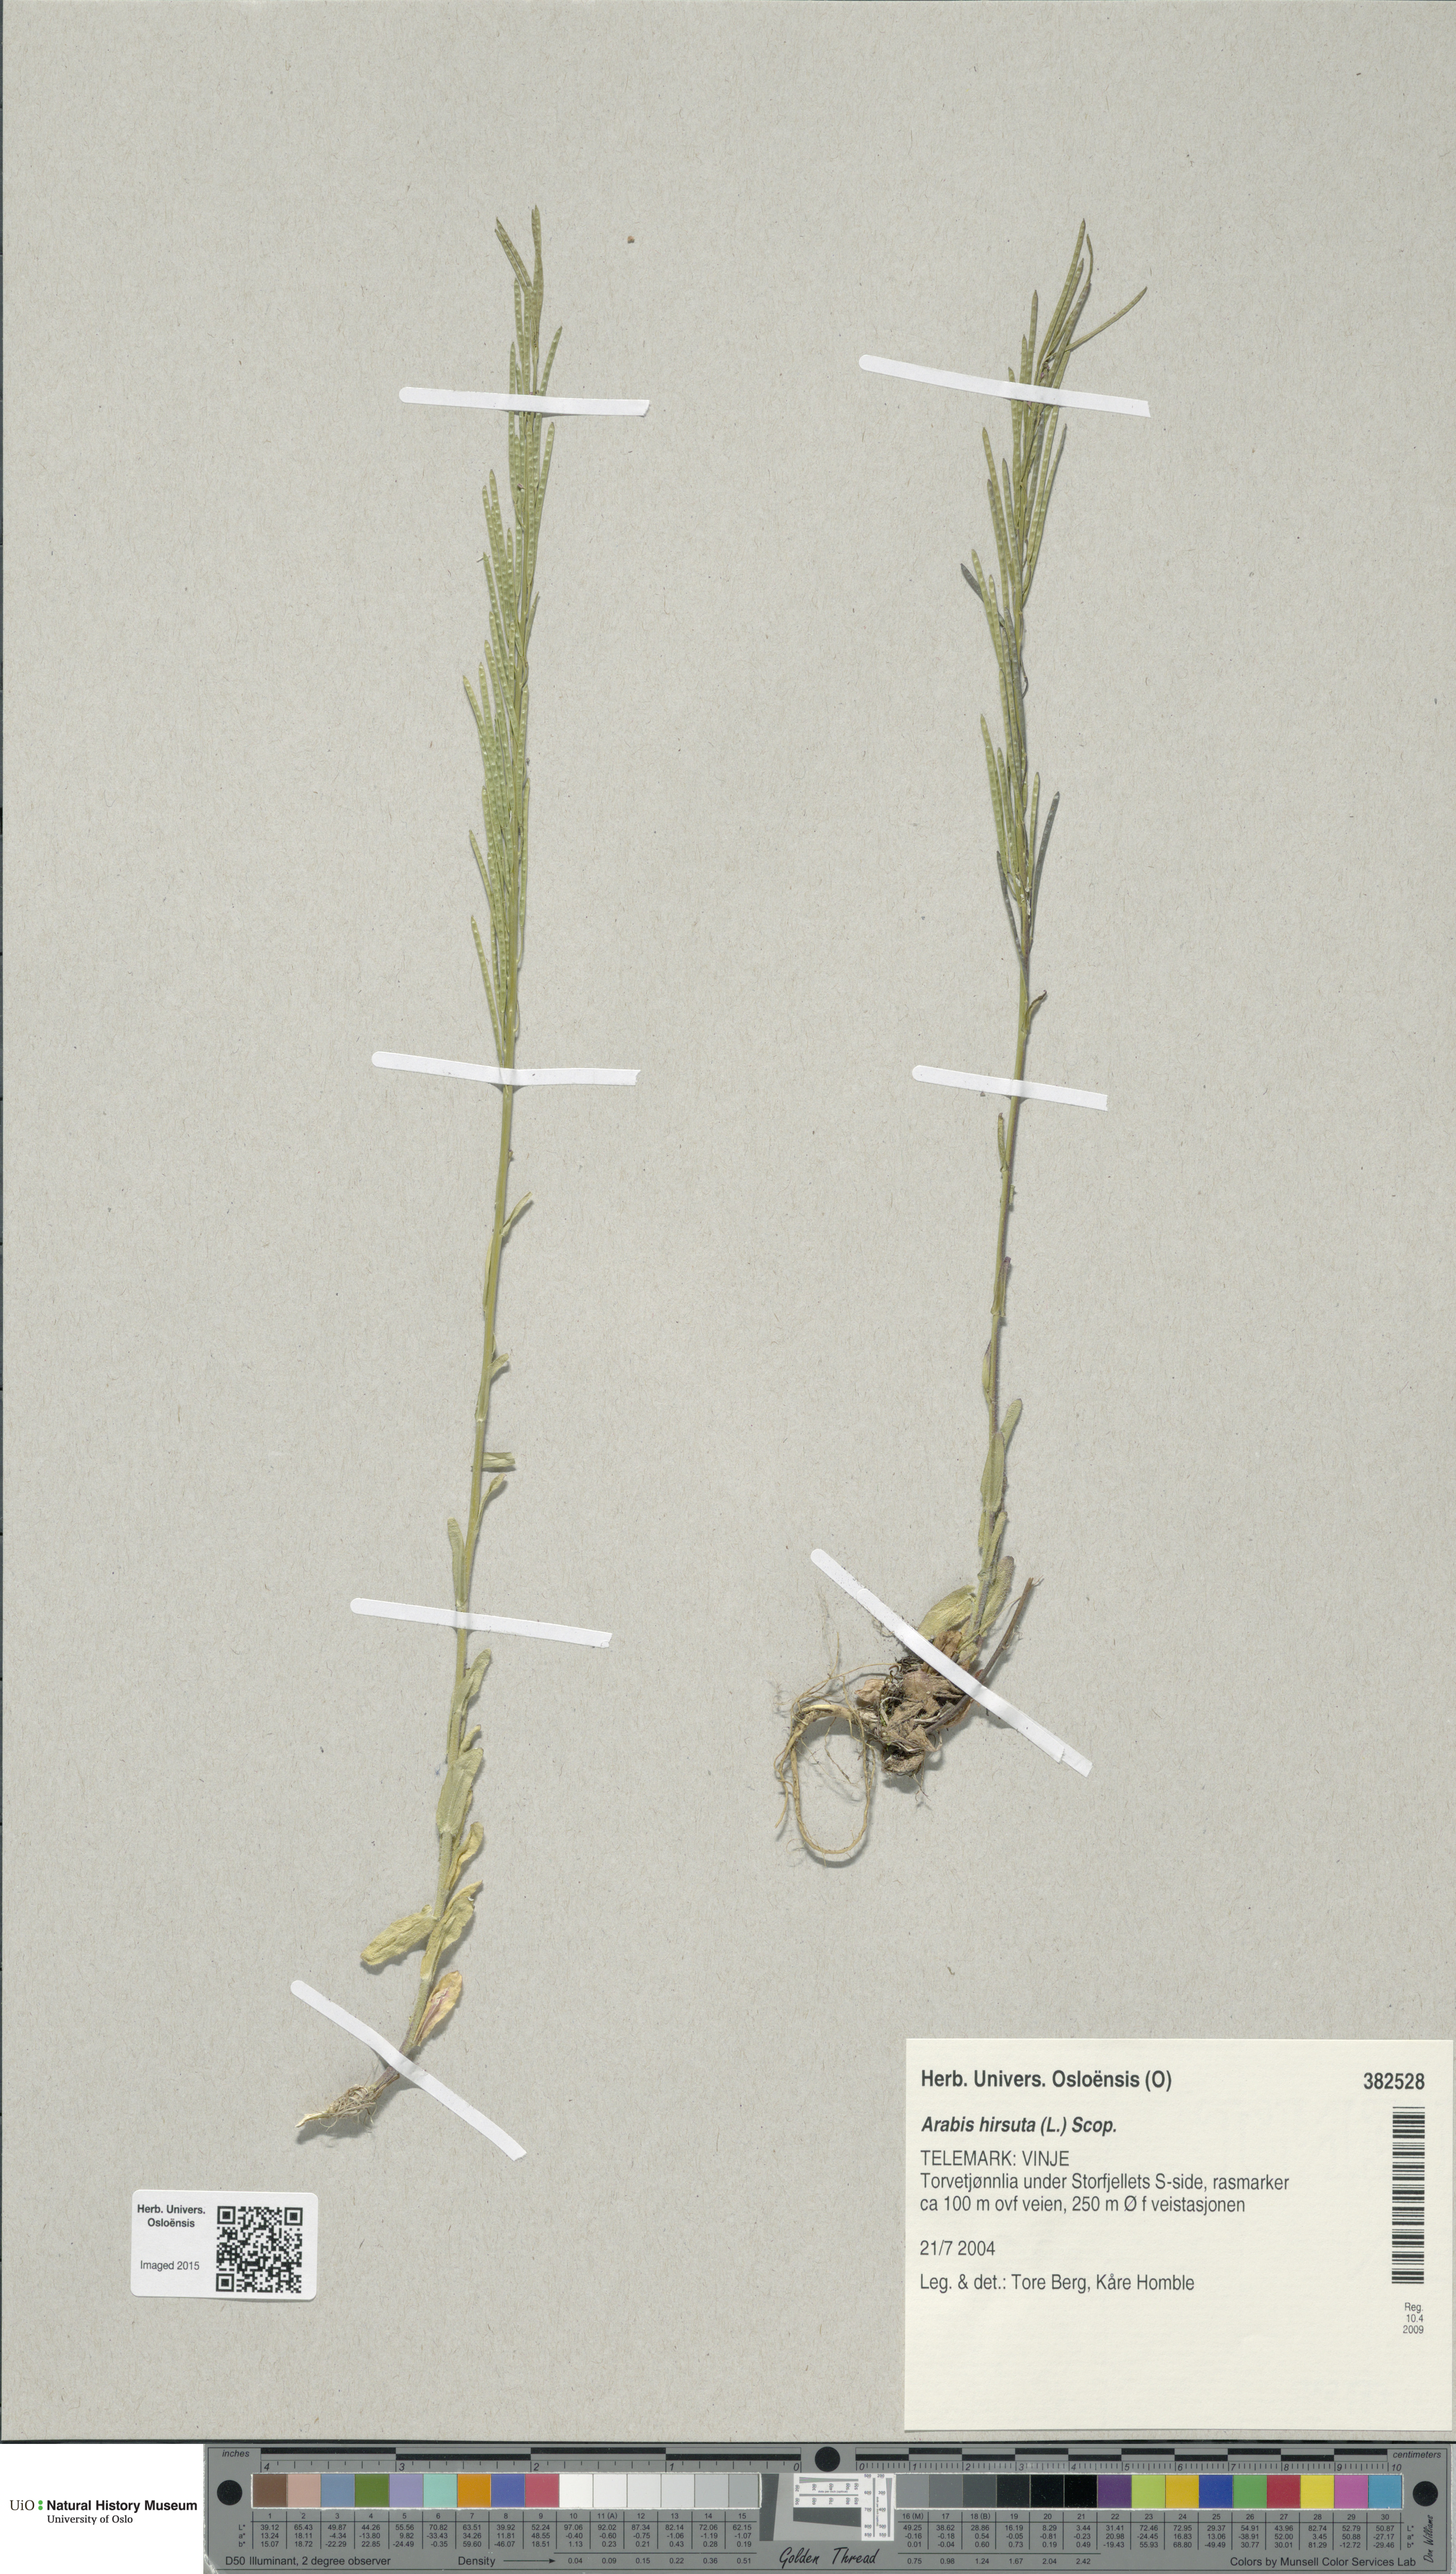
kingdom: Plantae
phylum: Tracheophyta
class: Magnoliopsida
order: Brassicales
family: Brassicaceae
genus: Arabis
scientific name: Arabis hirsuta
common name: Hairy rock-cress
